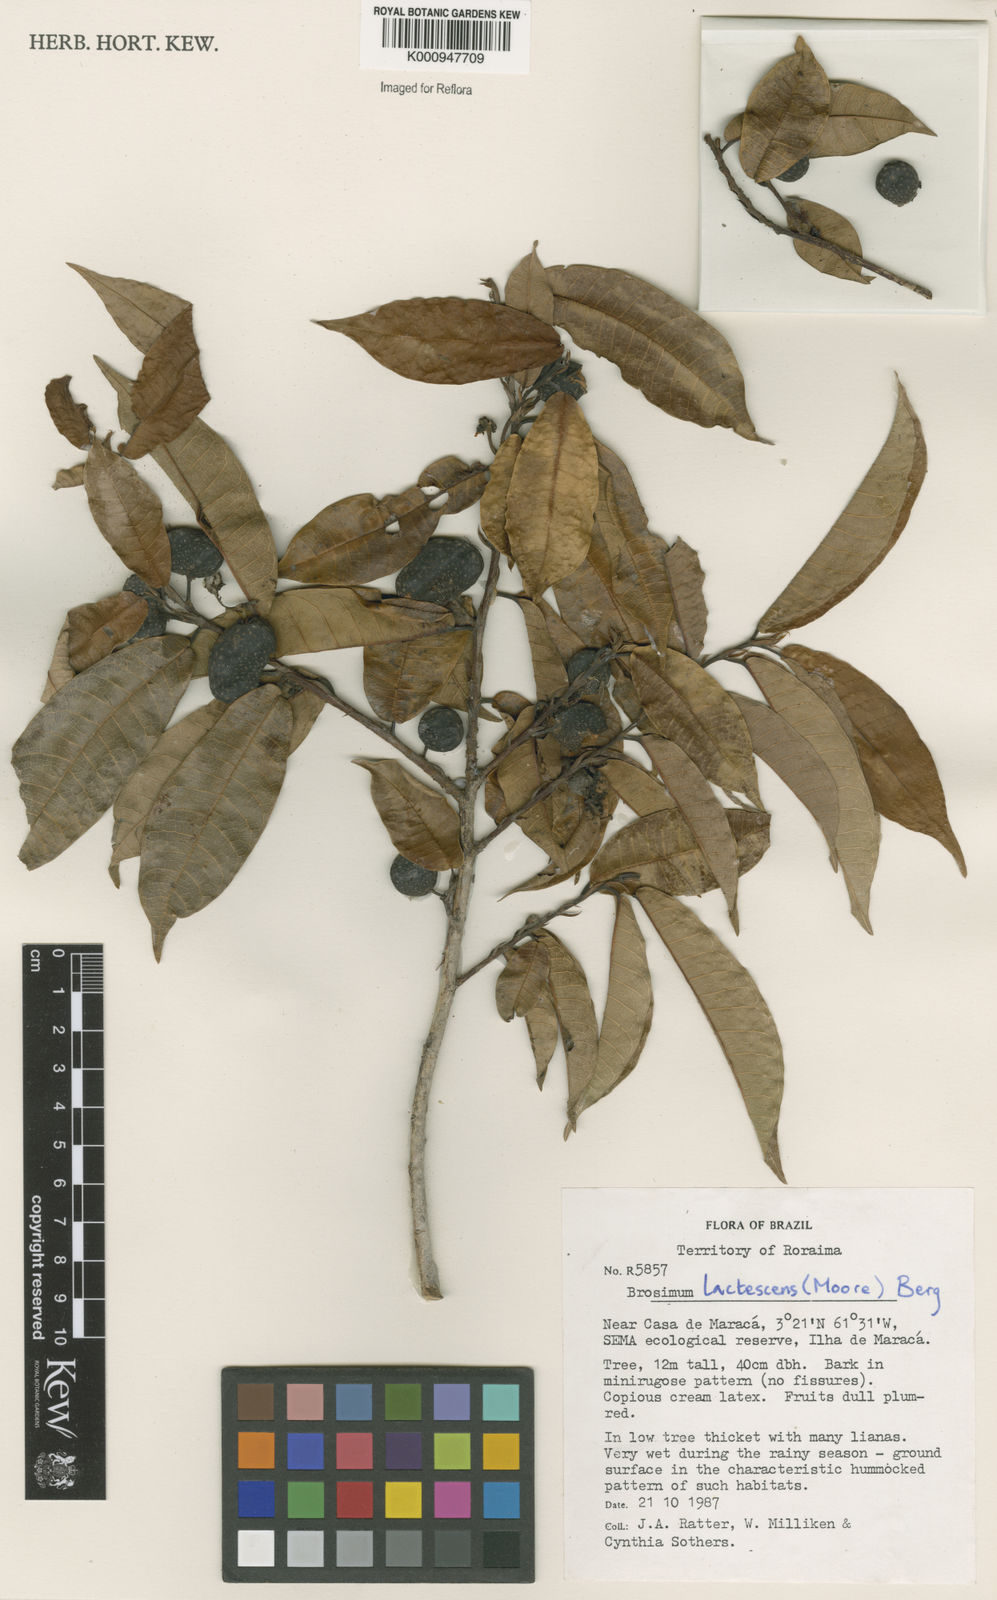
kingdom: Plantae
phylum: Tracheophyta
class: Magnoliopsida
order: Rosales
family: Moraceae
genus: Brosimum
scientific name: Brosimum lactescens
